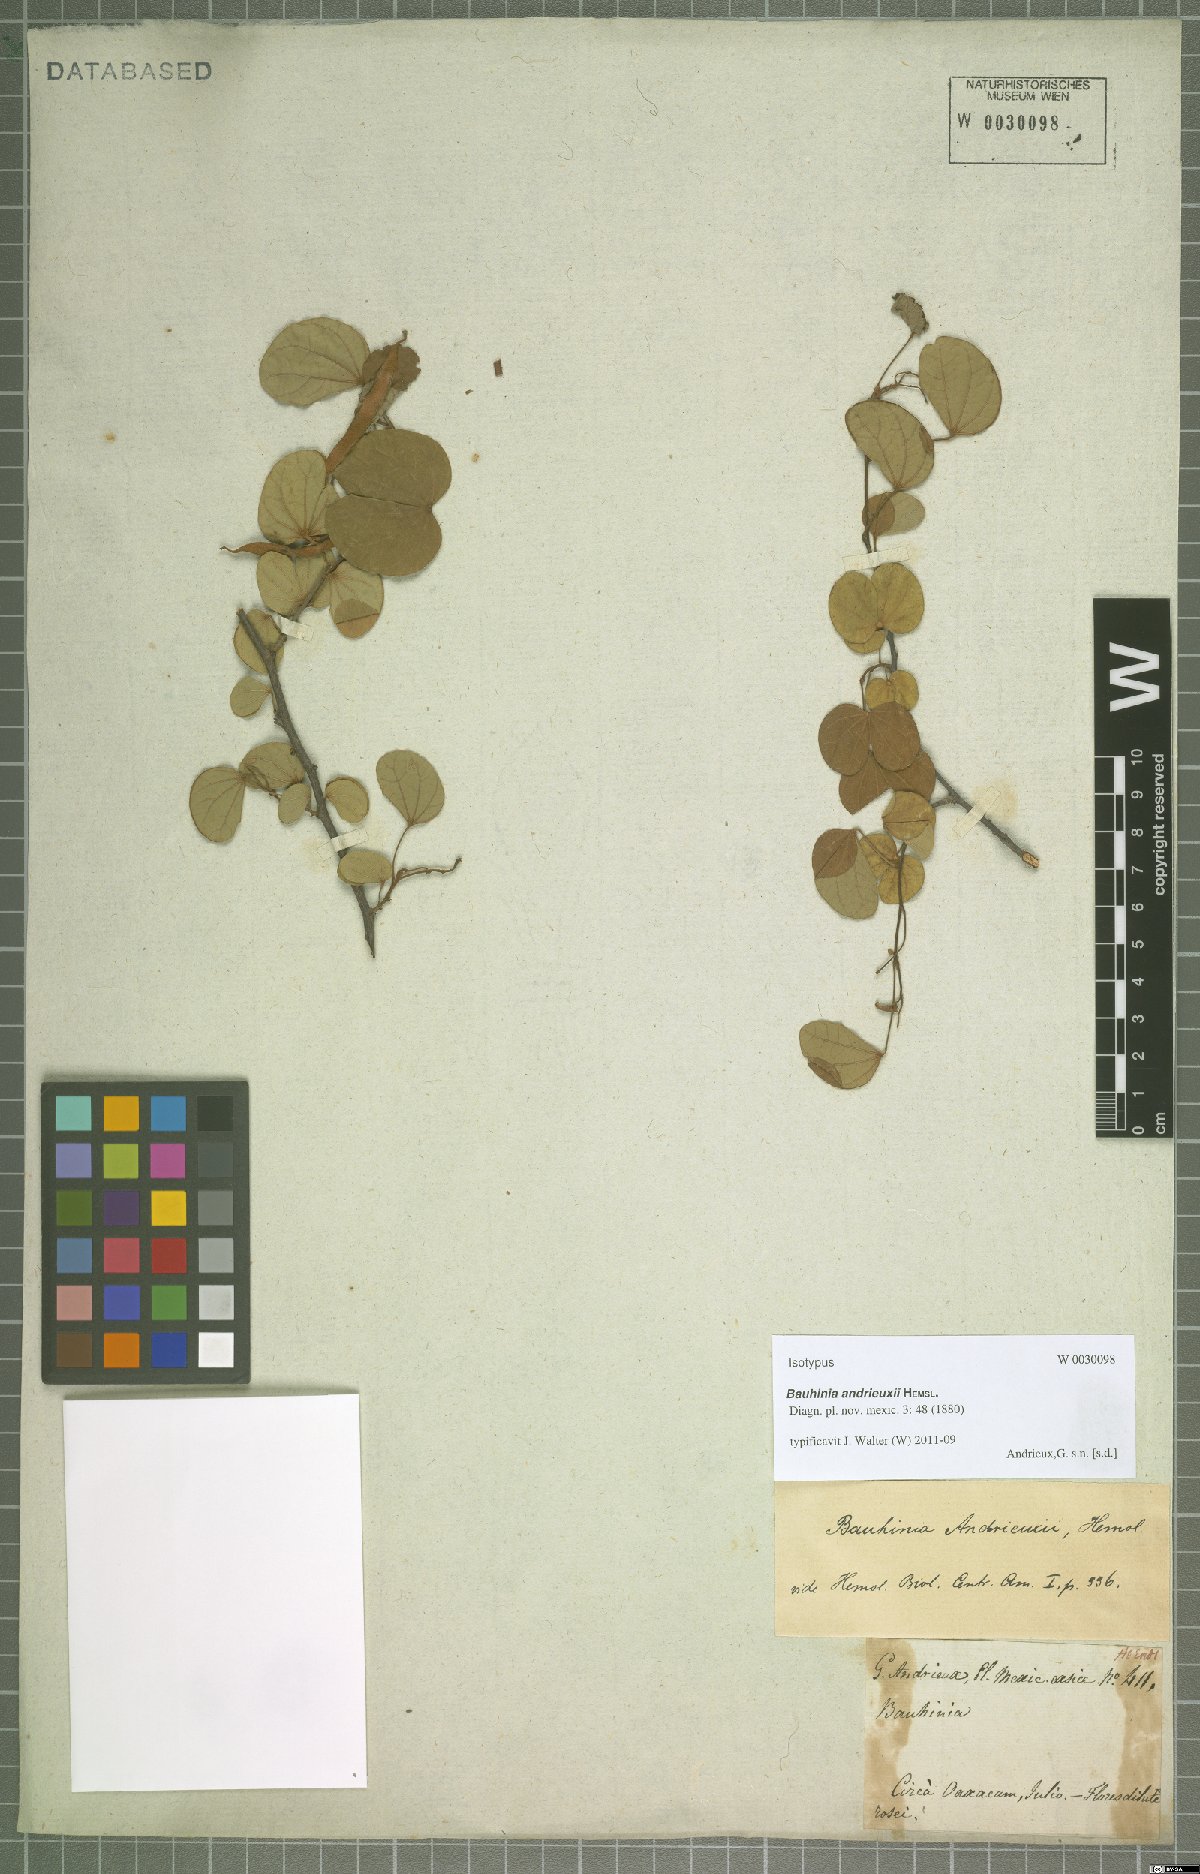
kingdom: Plantae
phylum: Tracheophyta
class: Magnoliopsida
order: Fabales
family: Fabaceae
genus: Bauhinia
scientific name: Bauhinia andrieuxii
